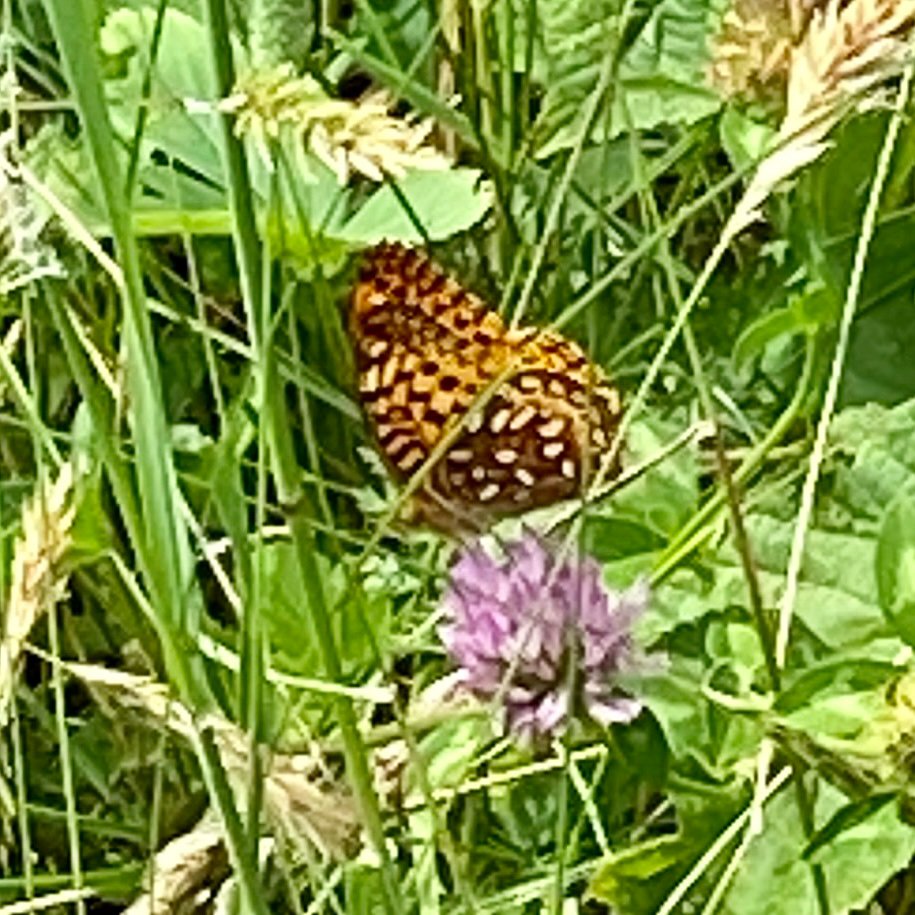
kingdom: Animalia
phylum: Arthropoda
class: Insecta
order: Lepidoptera
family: Nymphalidae
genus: Speyeria
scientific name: Speyeria atlantis
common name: Atlantis Fritillary
